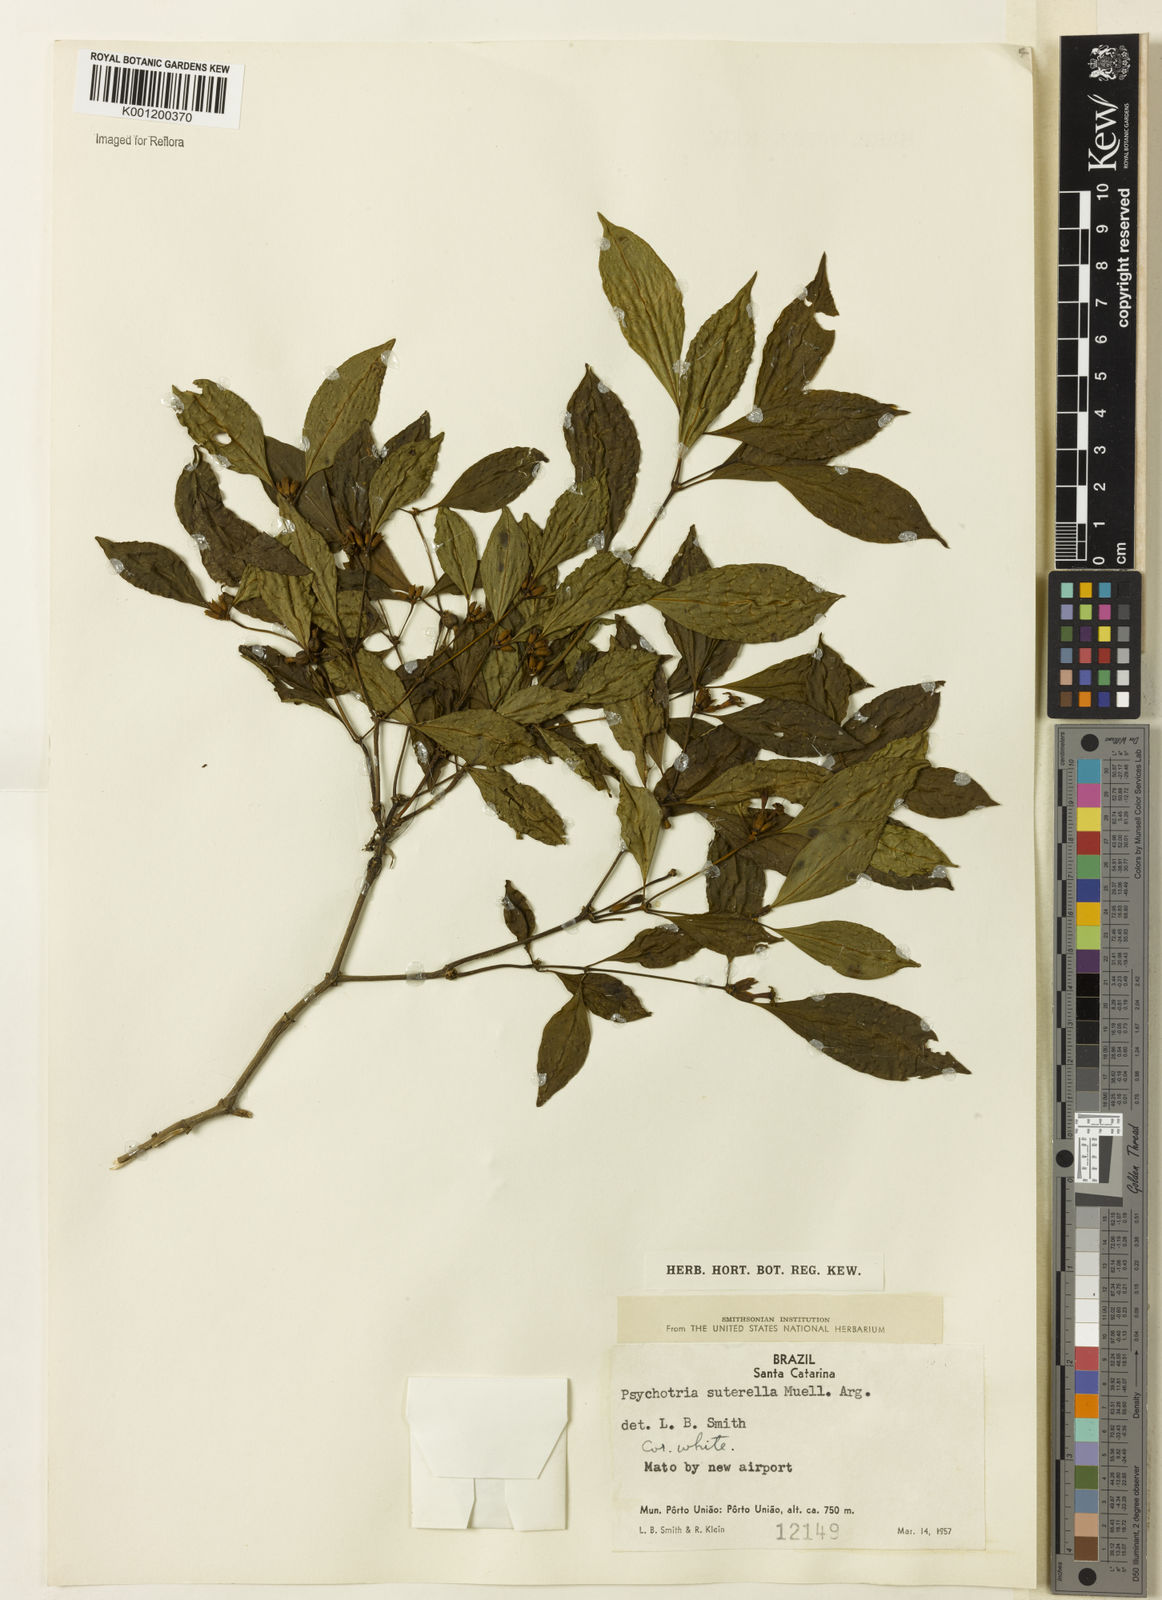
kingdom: Plantae
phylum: Tracheophyta
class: Magnoliopsida
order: Gentianales
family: Rubiaceae
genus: Psychotria
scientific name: Psychotria
